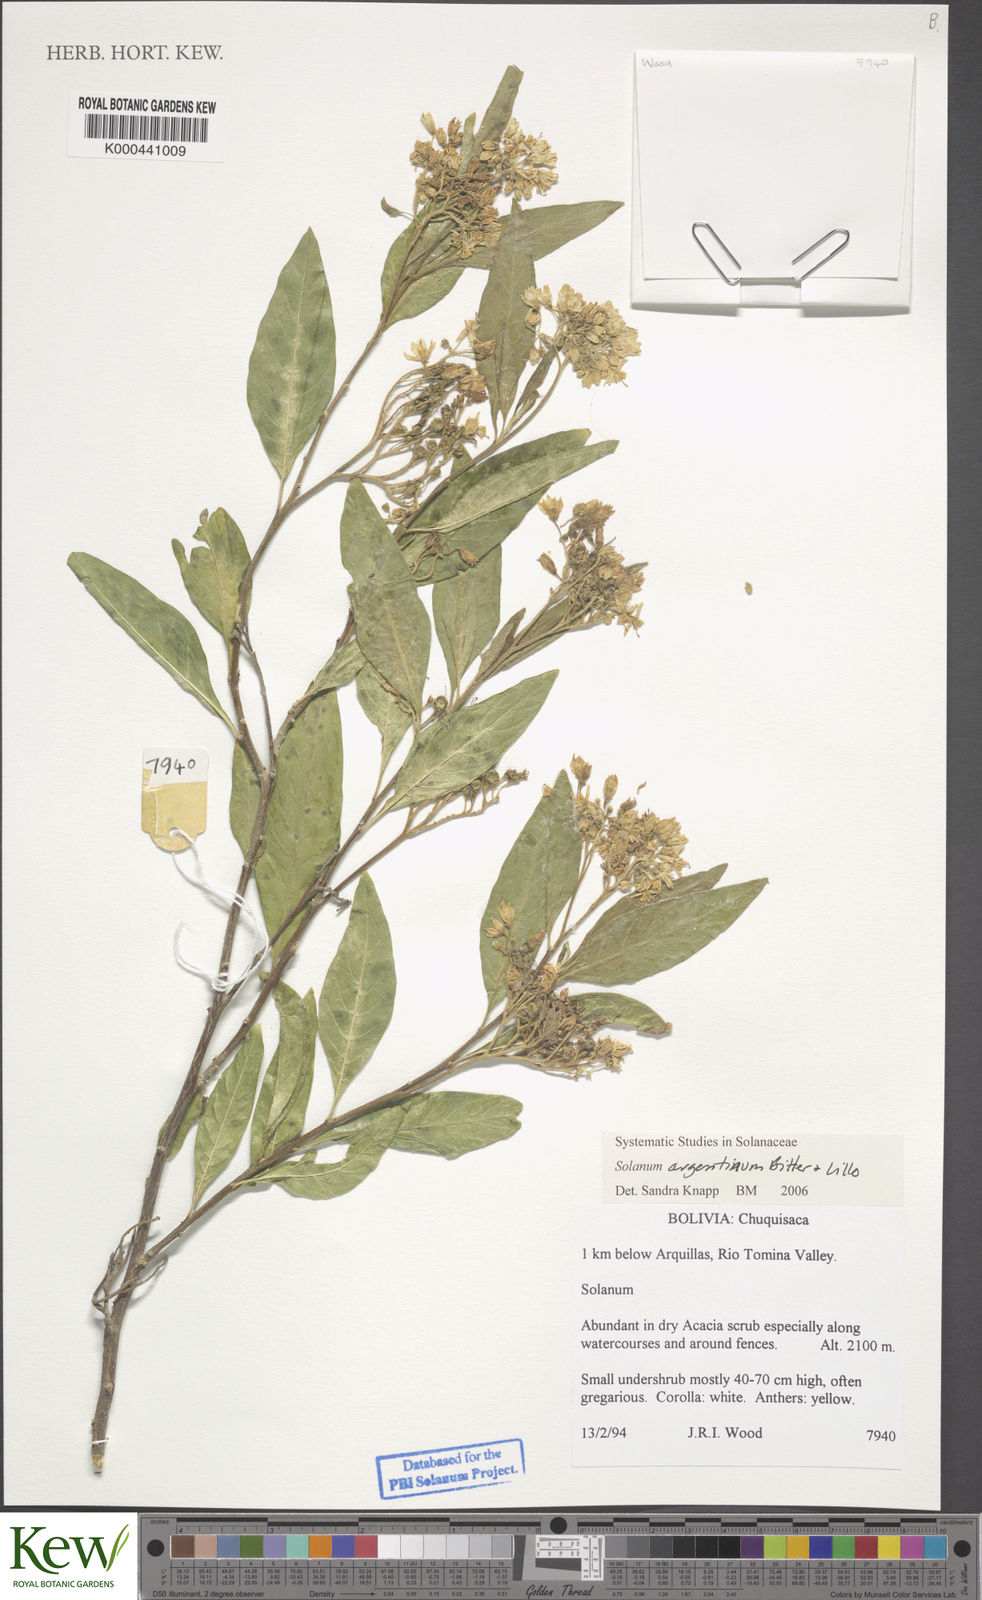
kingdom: Plantae
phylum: Tracheophyta
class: Magnoliopsida
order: Solanales
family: Solanaceae
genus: Solanum
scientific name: Solanum argentinum
